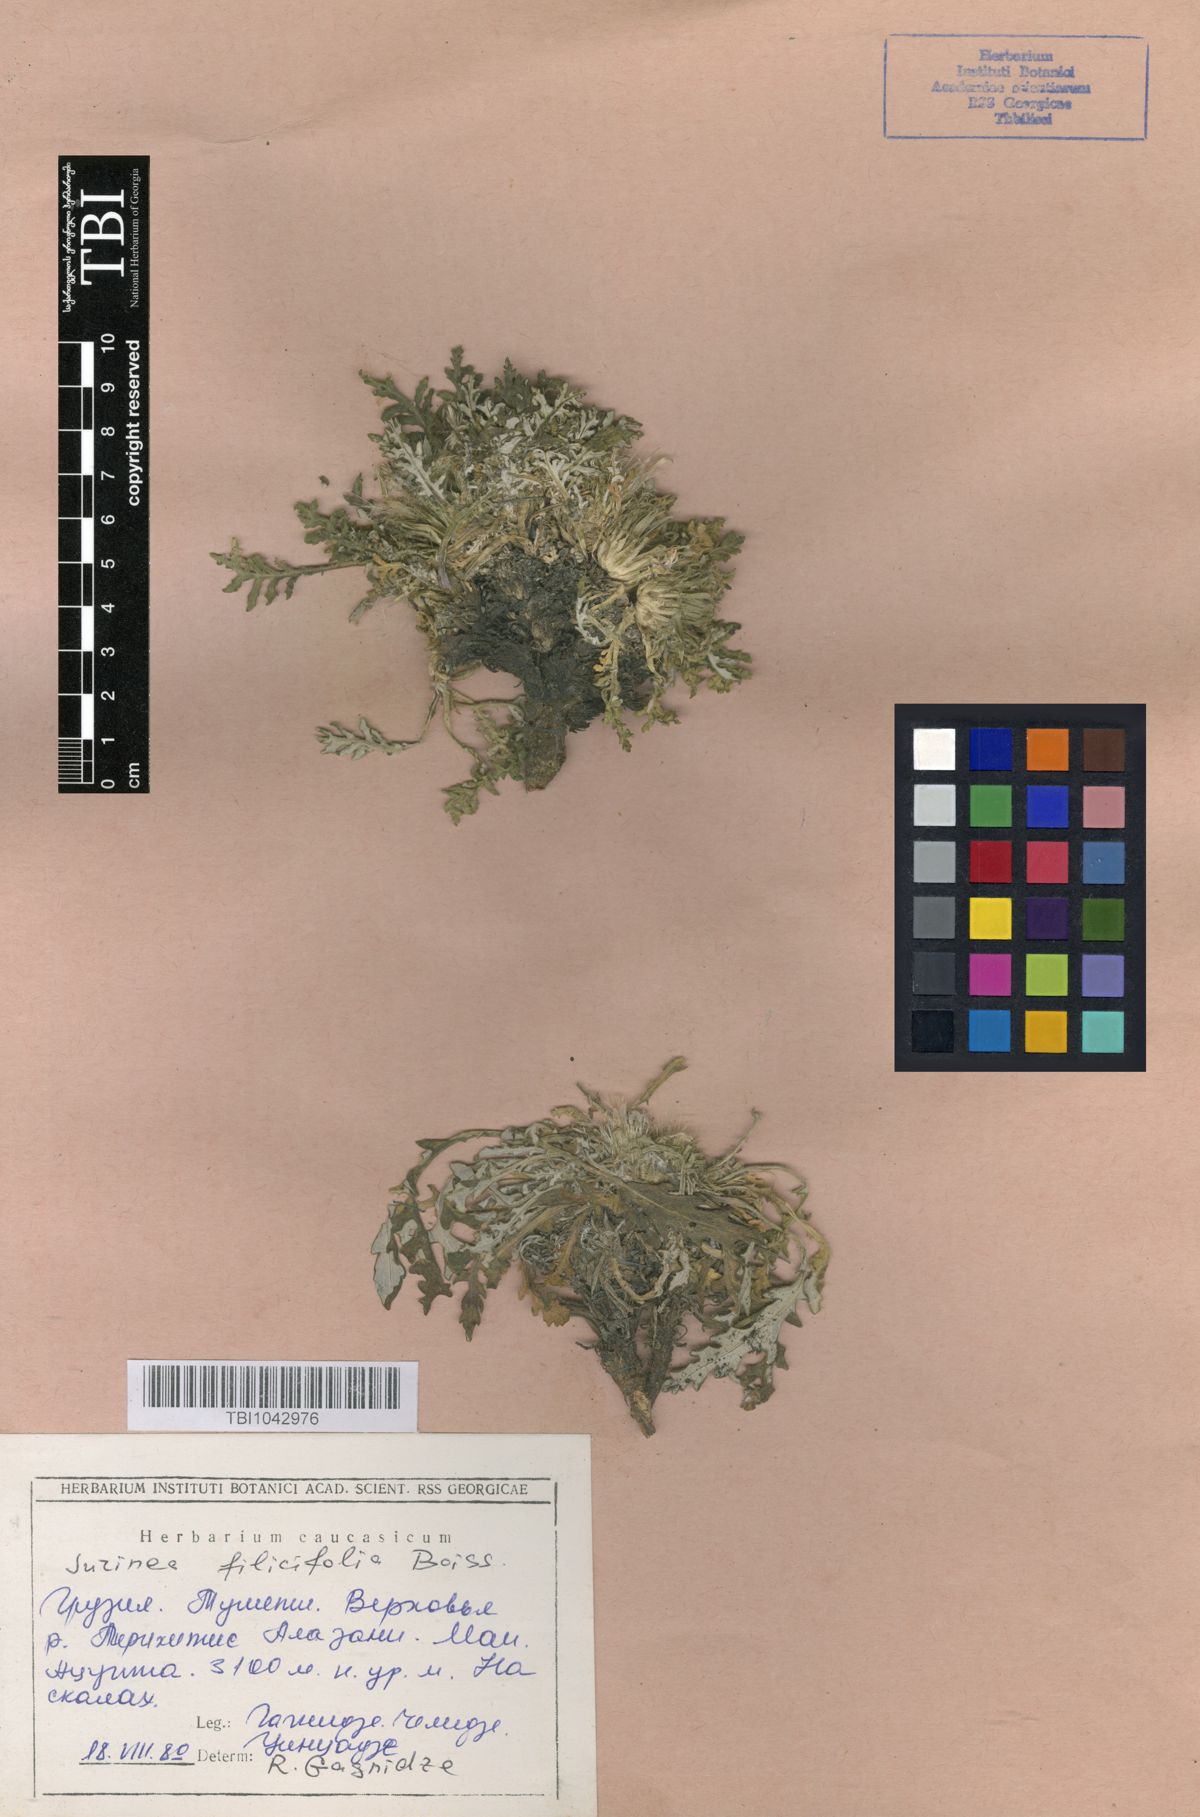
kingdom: Plantae
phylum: Tracheophyta
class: Magnoliopsida
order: Asterales
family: Asteraceae
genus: Jurinea
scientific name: Jurinea filicifolia
